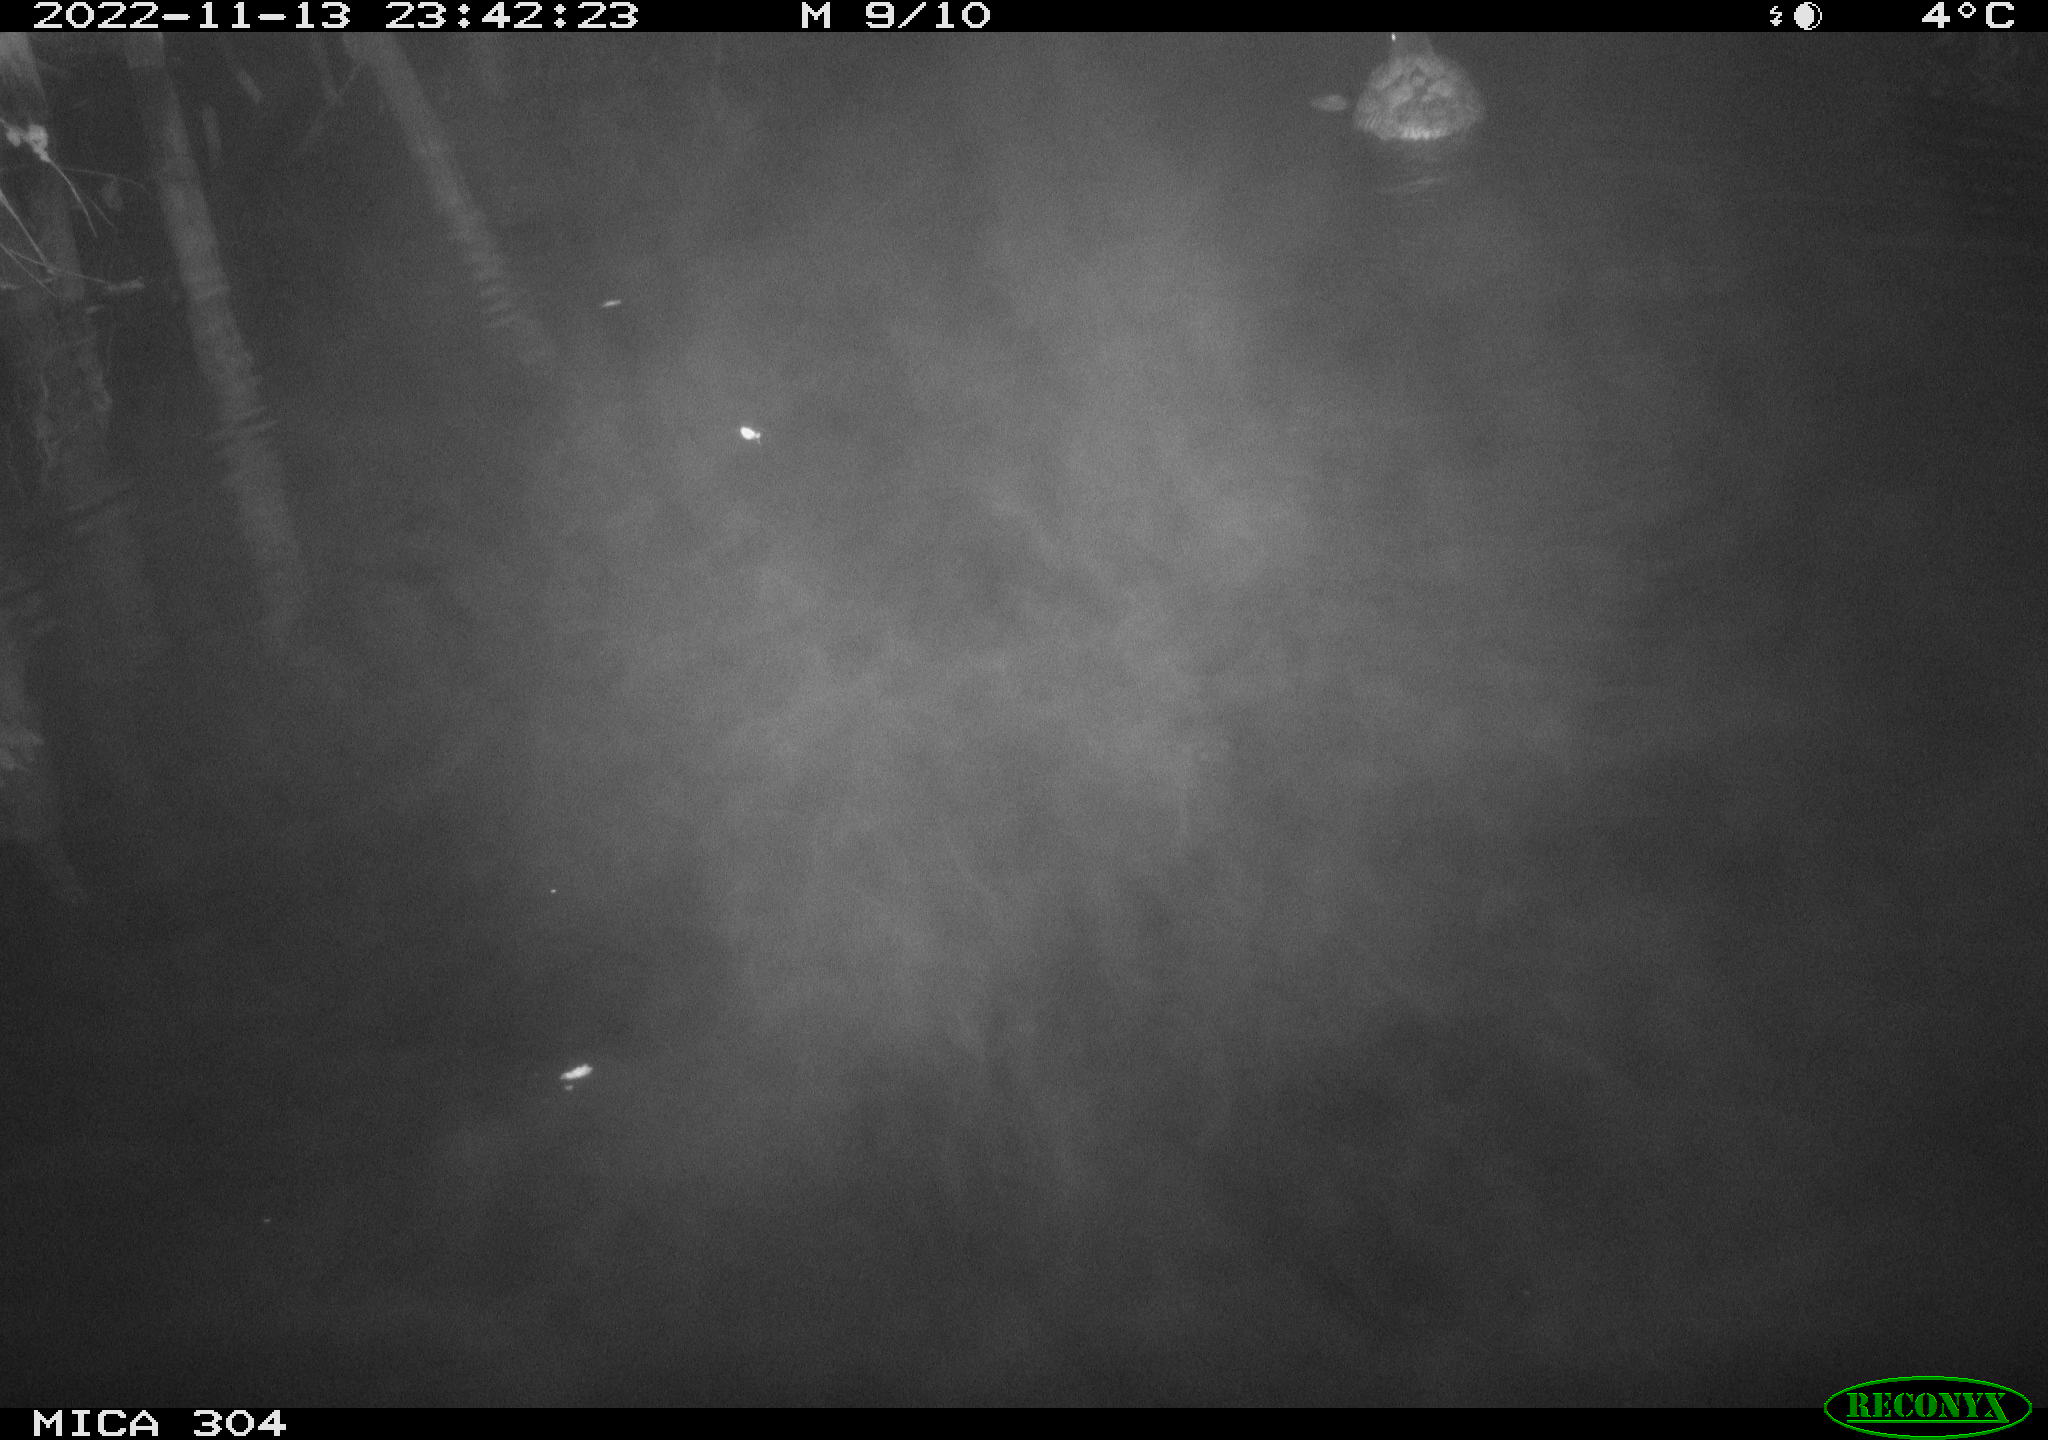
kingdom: Animalia
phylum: Chordata
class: Aves
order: Anseriformes
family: Anatidae
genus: Anas
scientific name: Anas
